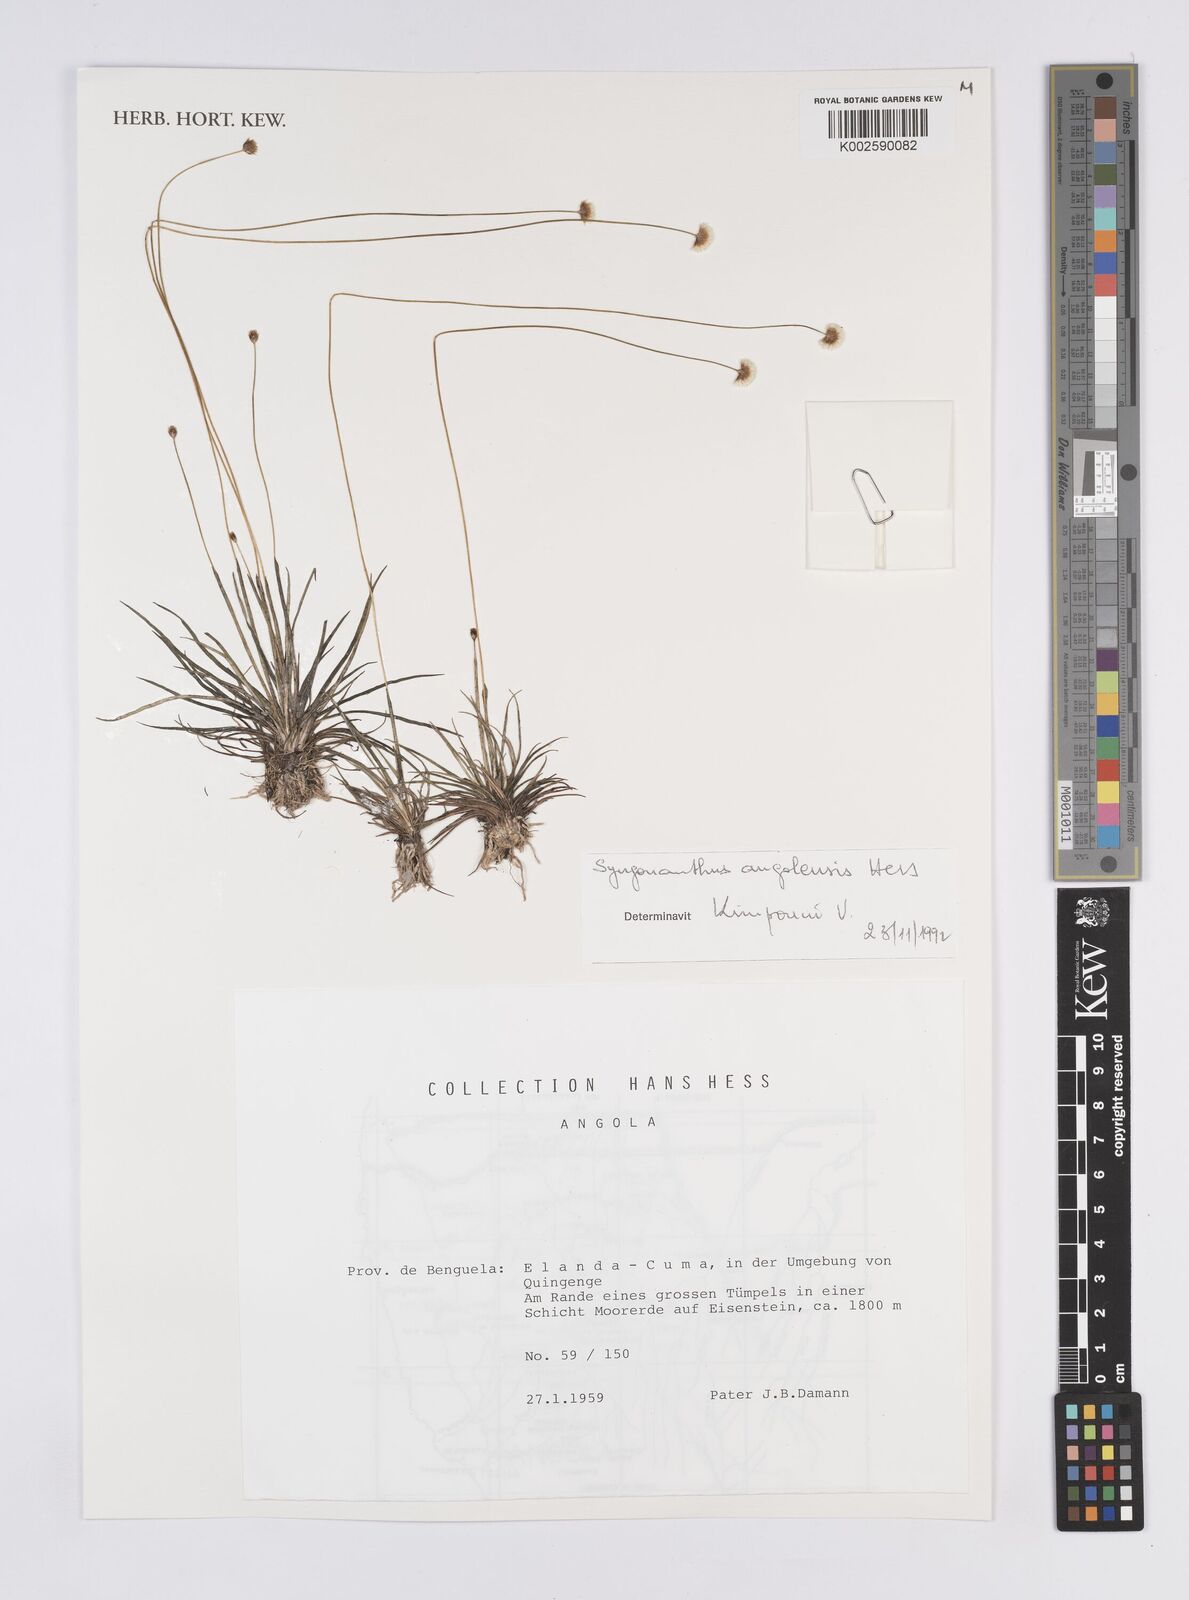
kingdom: Plantae
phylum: Tracheophyta
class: Liliopsida
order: Poales
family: Eriocaulaceae
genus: Syngonanthus
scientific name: Syngonanthus angolensis
